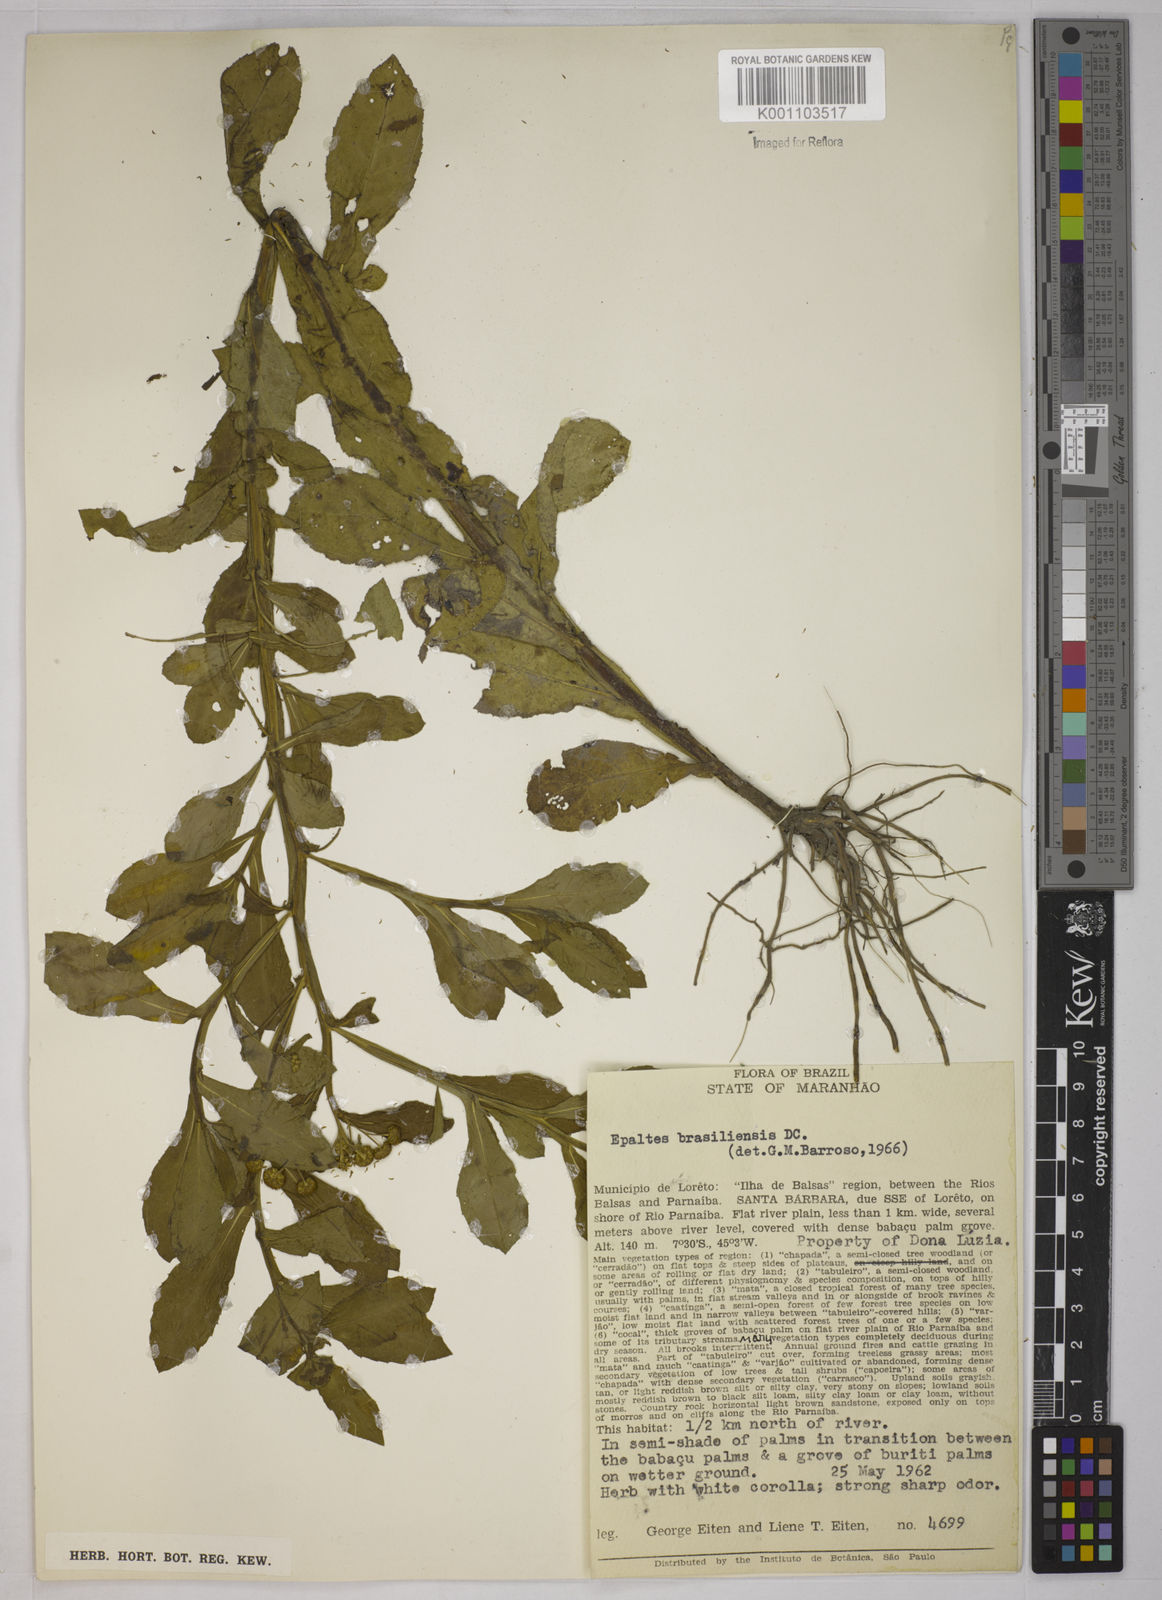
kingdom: Plantae
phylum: Tracheophyta
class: Magnoliopsida
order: Asterales
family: Asteraceae
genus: Epaltes
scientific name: Epaltes brasiliensis
